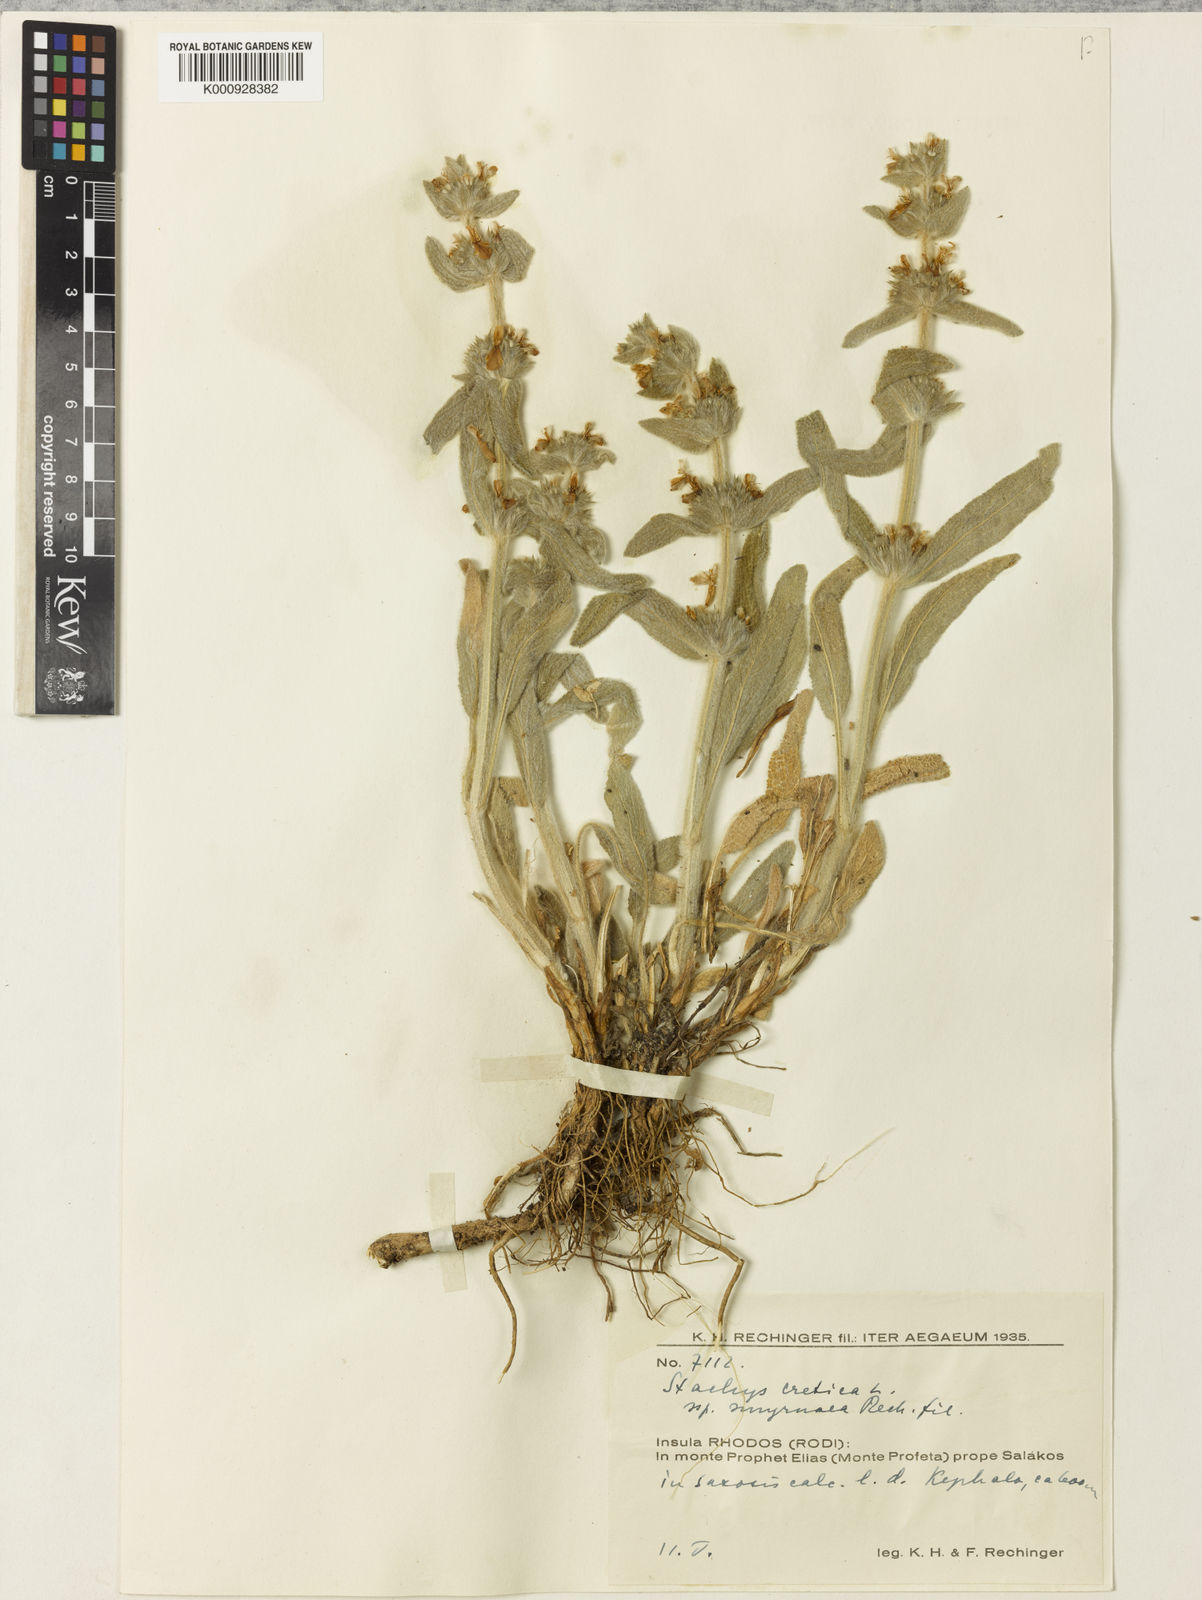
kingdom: Plantae
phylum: Tracheophyta
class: Magnoliopsida
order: Lamiales
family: Lamiaceae
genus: Stachys
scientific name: Stachys cretica
